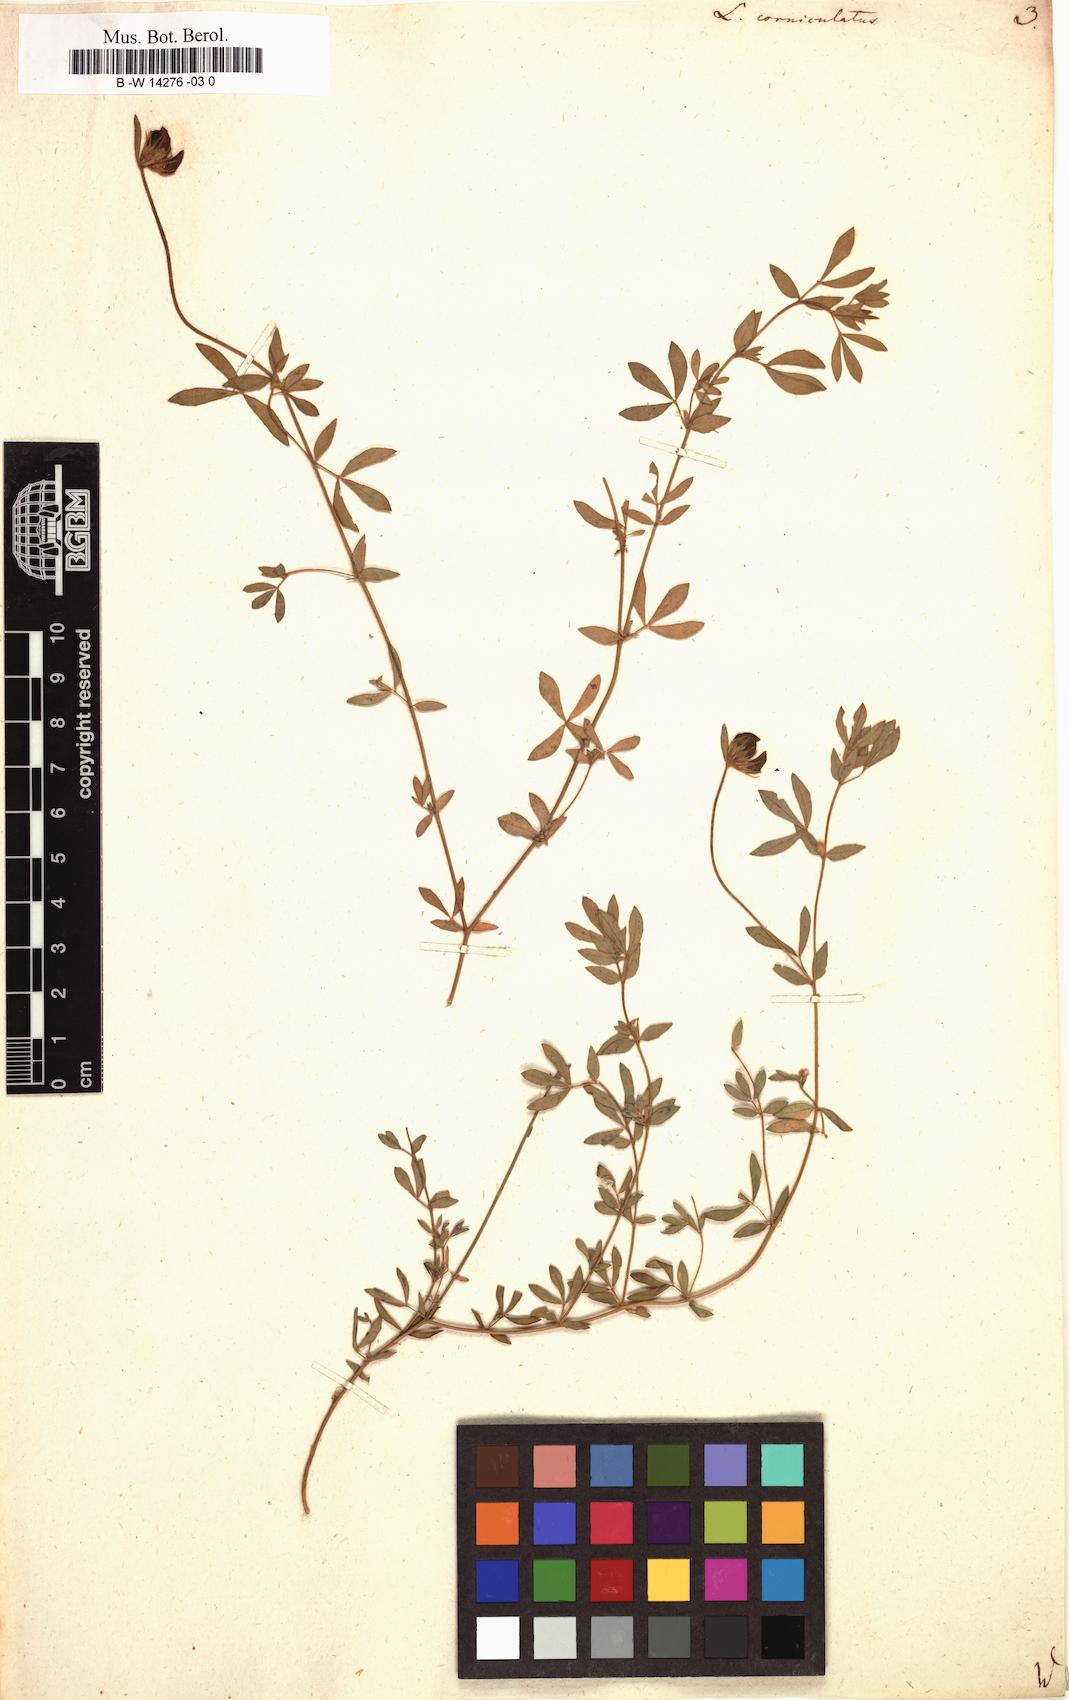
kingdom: Plantae
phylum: Tracheophyta
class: Magnoliopsida
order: Fabales
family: Fabaceae
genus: Lotus
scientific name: Lotus corniculatus
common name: Common bird's-foot-trefoil
